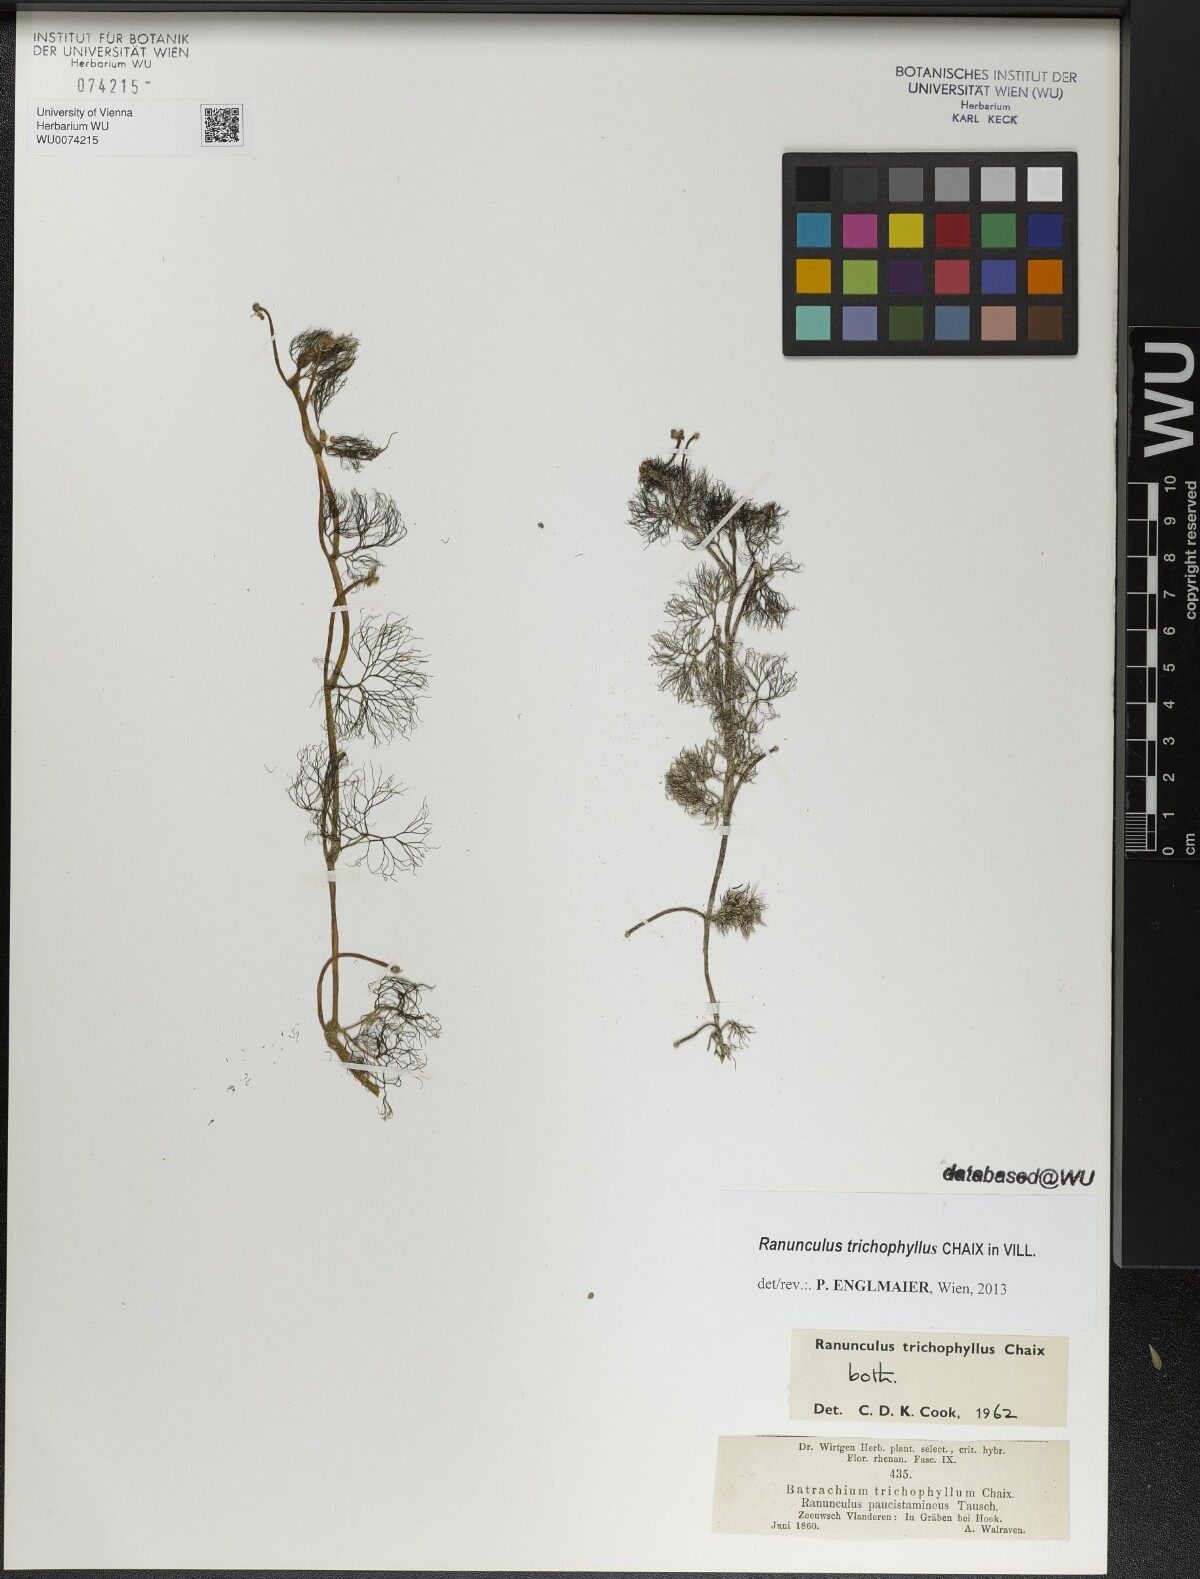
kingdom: Plantae
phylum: Tracheophyta
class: Magnoliopsida
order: Ranunculales
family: Ranunculaceae
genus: Ranunculus
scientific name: Ranunculus trichophyllus
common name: Thread-leaved water-crowfoot
